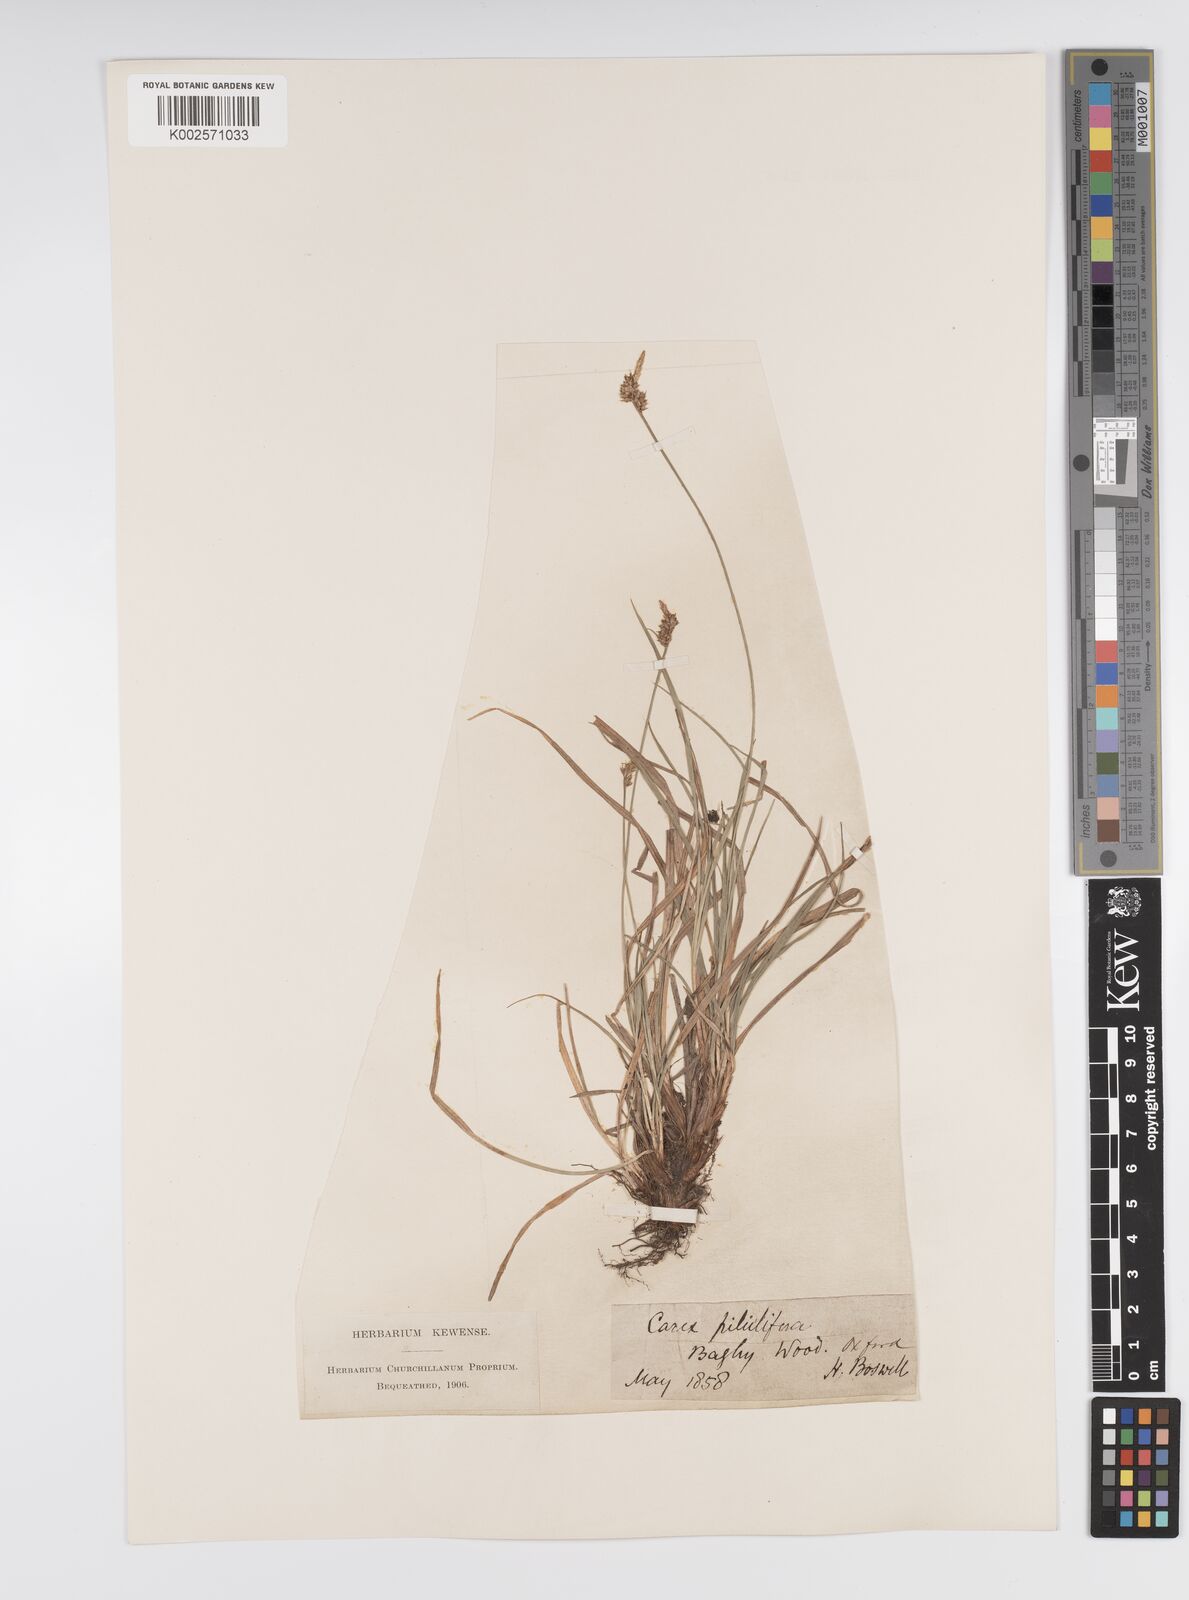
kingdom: Plantae
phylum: Tracheophyta
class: Liliopsida
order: Poales
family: Cyperaceae
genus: Carex
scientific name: Carex pilulifera
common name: Pill sedge
